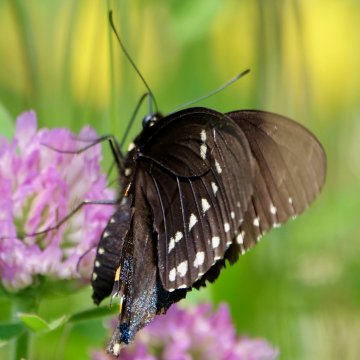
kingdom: Animalia
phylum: Arthropoda
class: Insecta
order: Lepidoptera
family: Papilionidae
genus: Pterourus
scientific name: Pterourus troilus
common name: Spicebush Swallowtail
